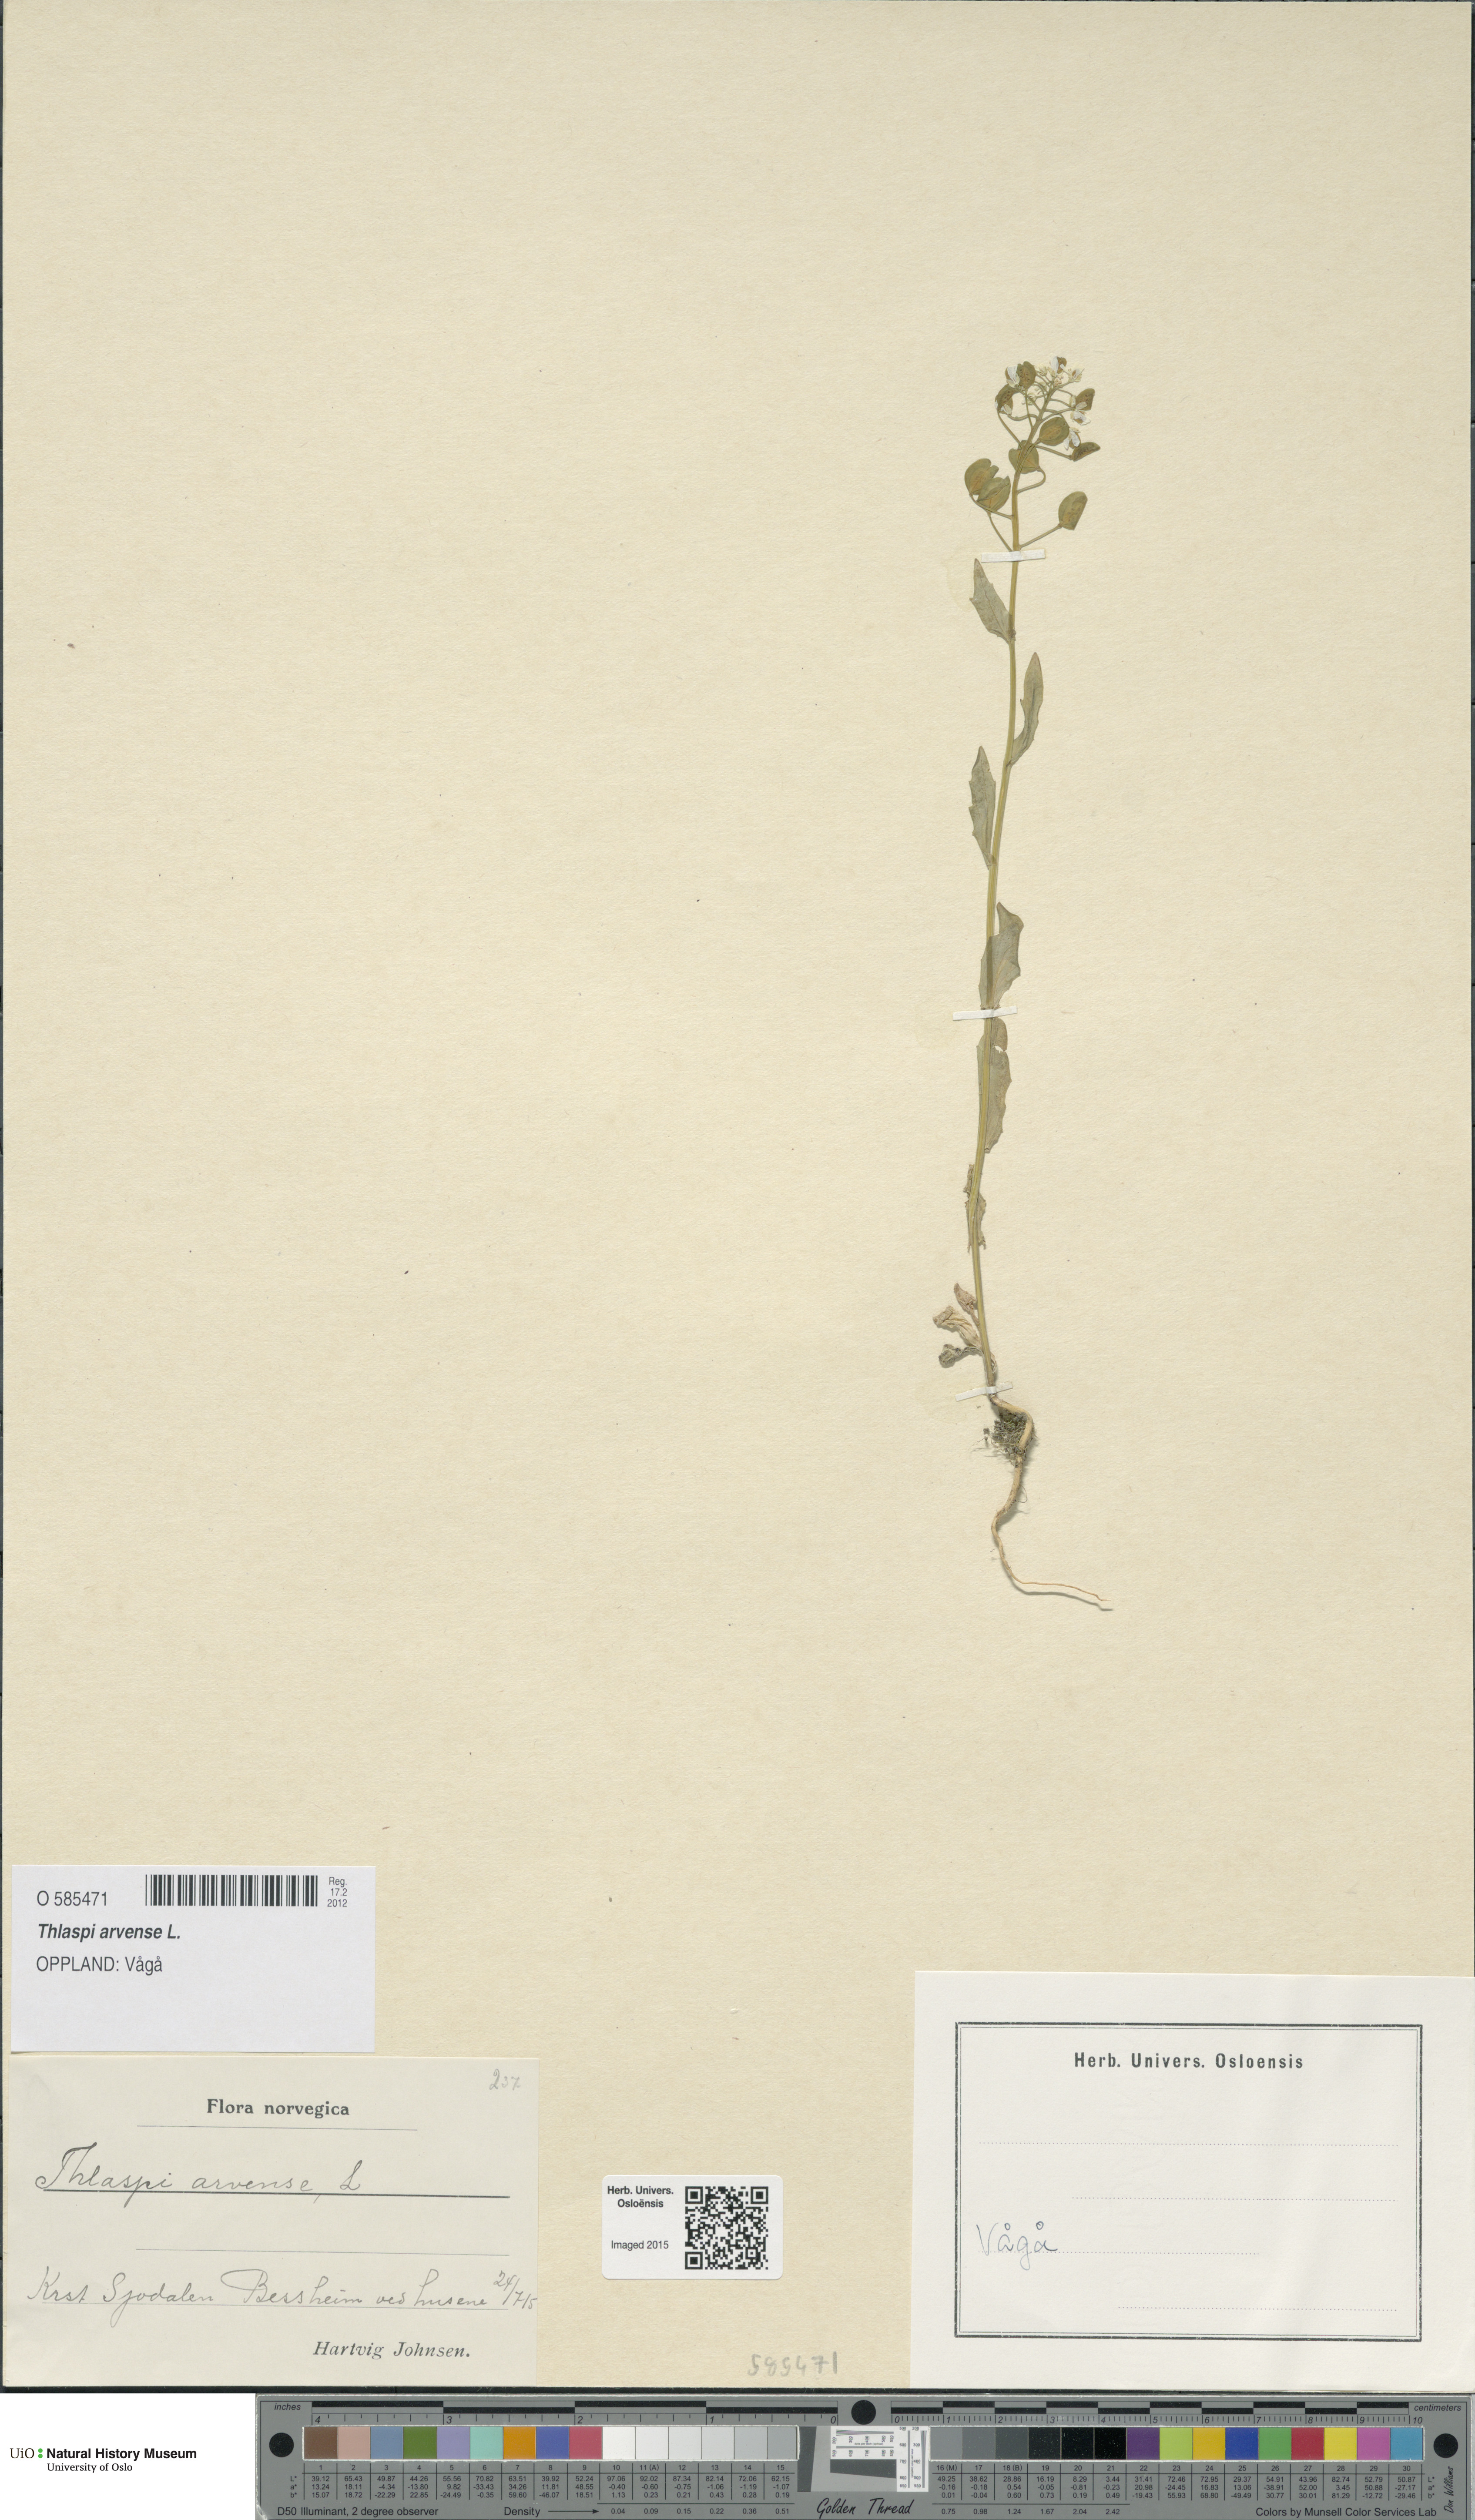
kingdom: Plantae
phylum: Tracheophyta
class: Magnoliopsida
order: Brassicales
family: Brassicaceae
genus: Thlaspi
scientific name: Thlaspi arvense
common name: Field pennycress
